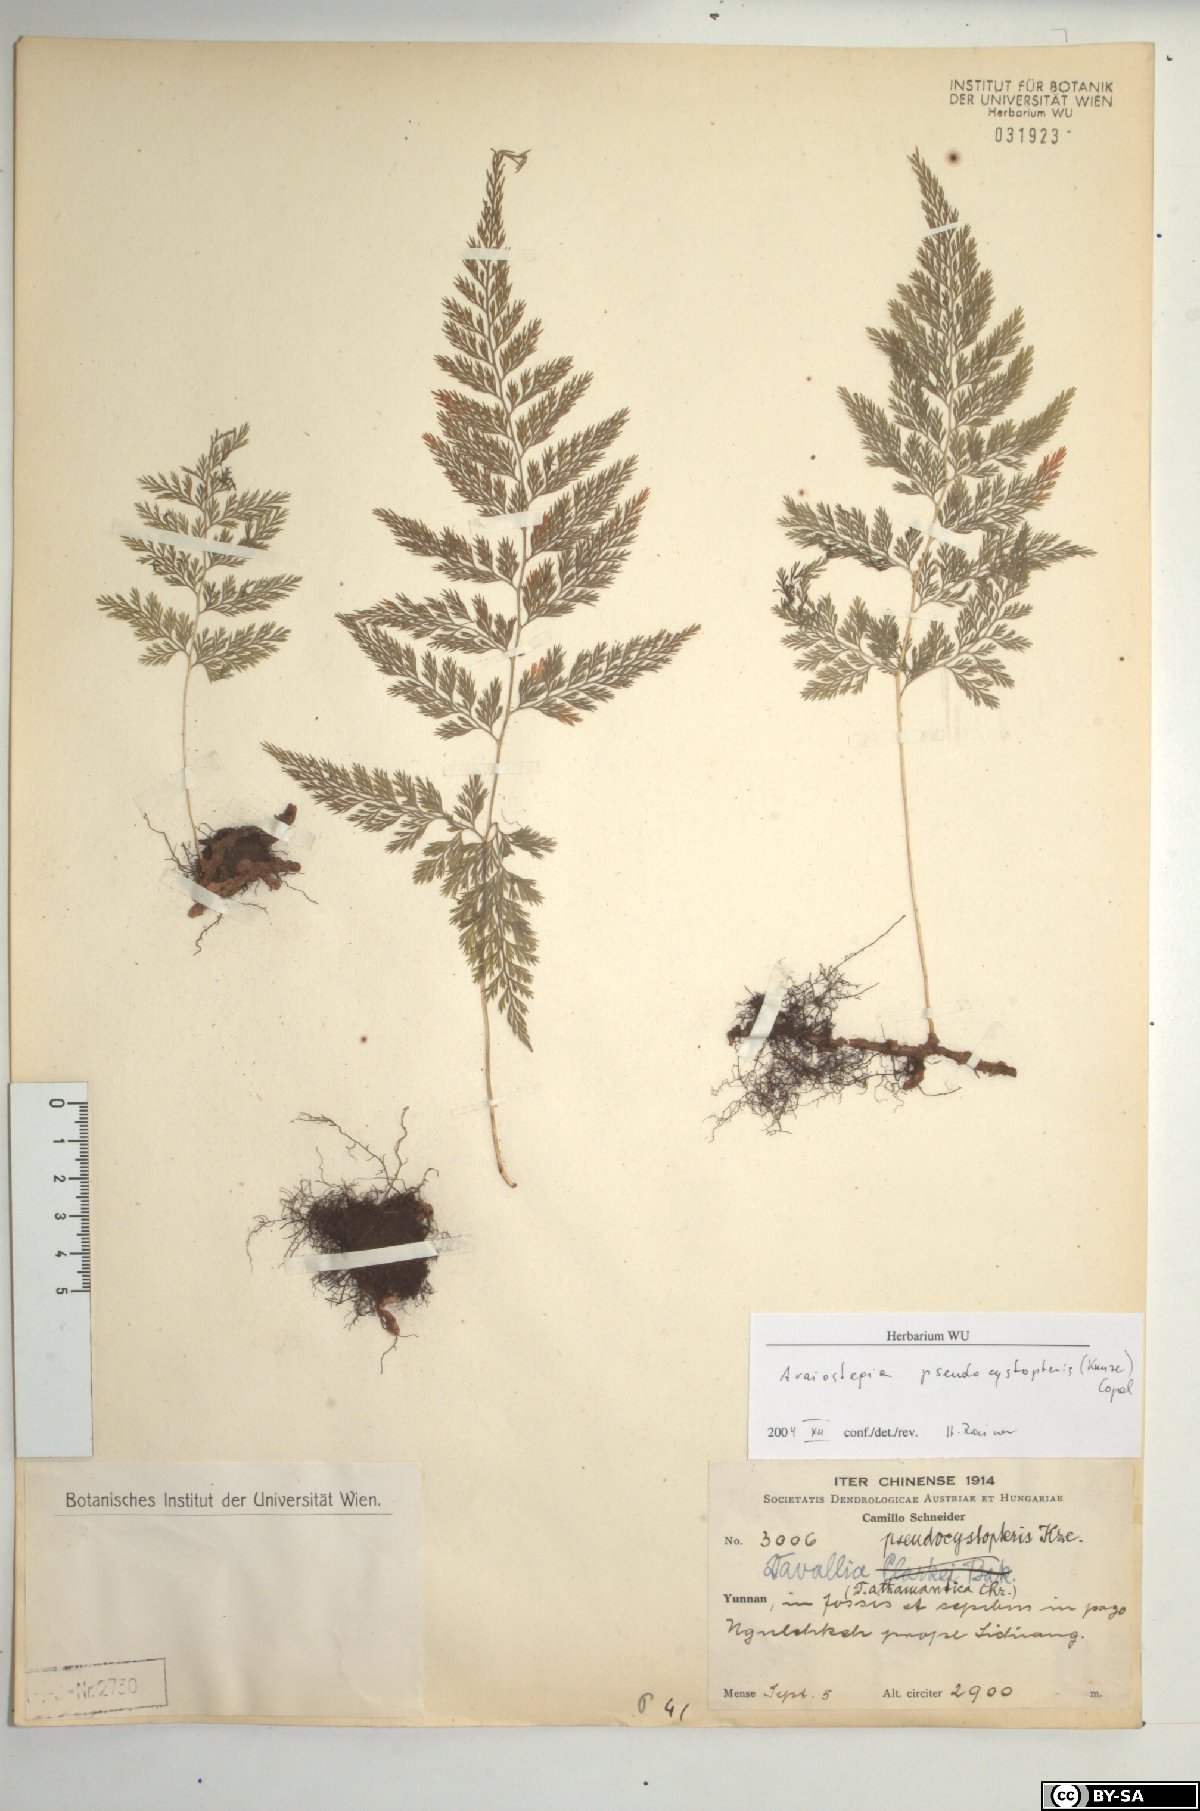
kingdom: Plantae
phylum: Tracheophyta
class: Polypodiopsida
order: Polypodiales
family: Davalliaceae
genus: Davallodes
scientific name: Davallodes pulchra
